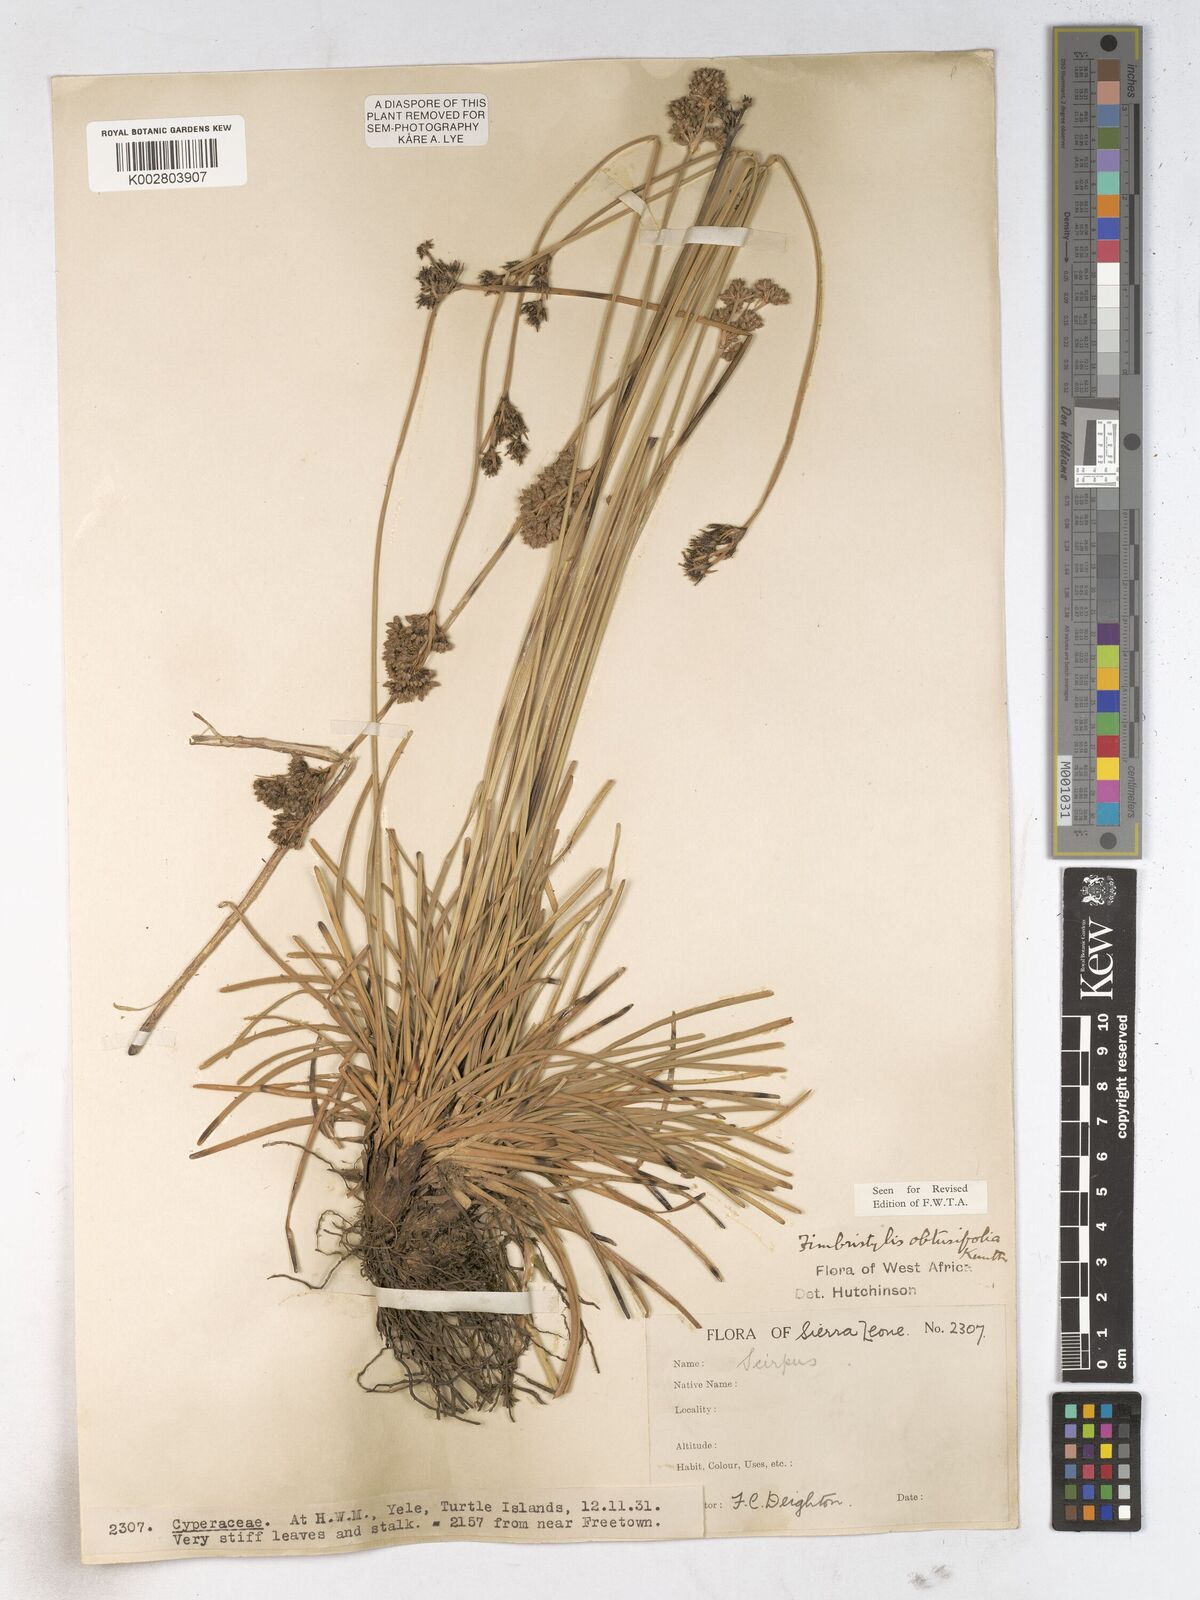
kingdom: Plantae
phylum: Tracheophyta
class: Liliopsida
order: Poales
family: Cyperaceae
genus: Fimbristylis
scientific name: Fimbristylis cymosa
